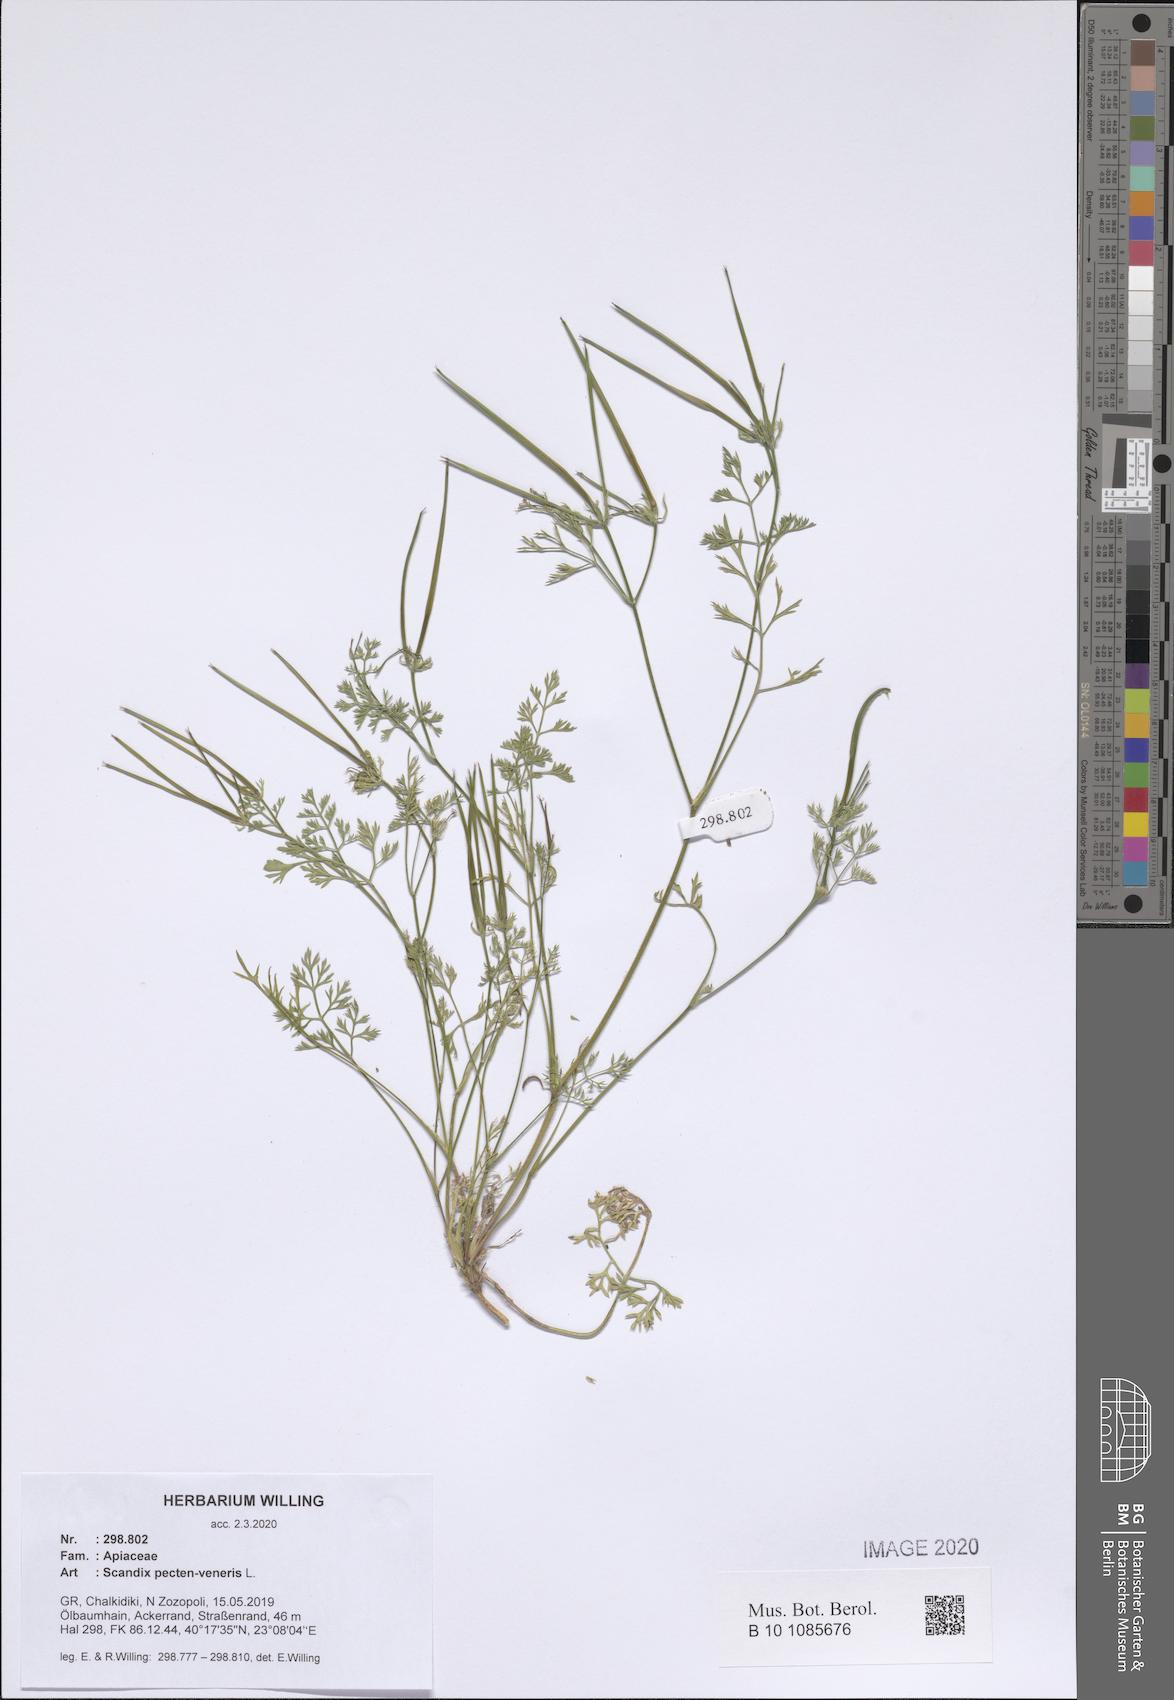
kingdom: Plantae
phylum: Tracheophyta
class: Magnoliopsida
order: Apiales
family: Apiaceae
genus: Scandix
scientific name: Scandix pecten-veneris
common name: Shepherd's-needle
